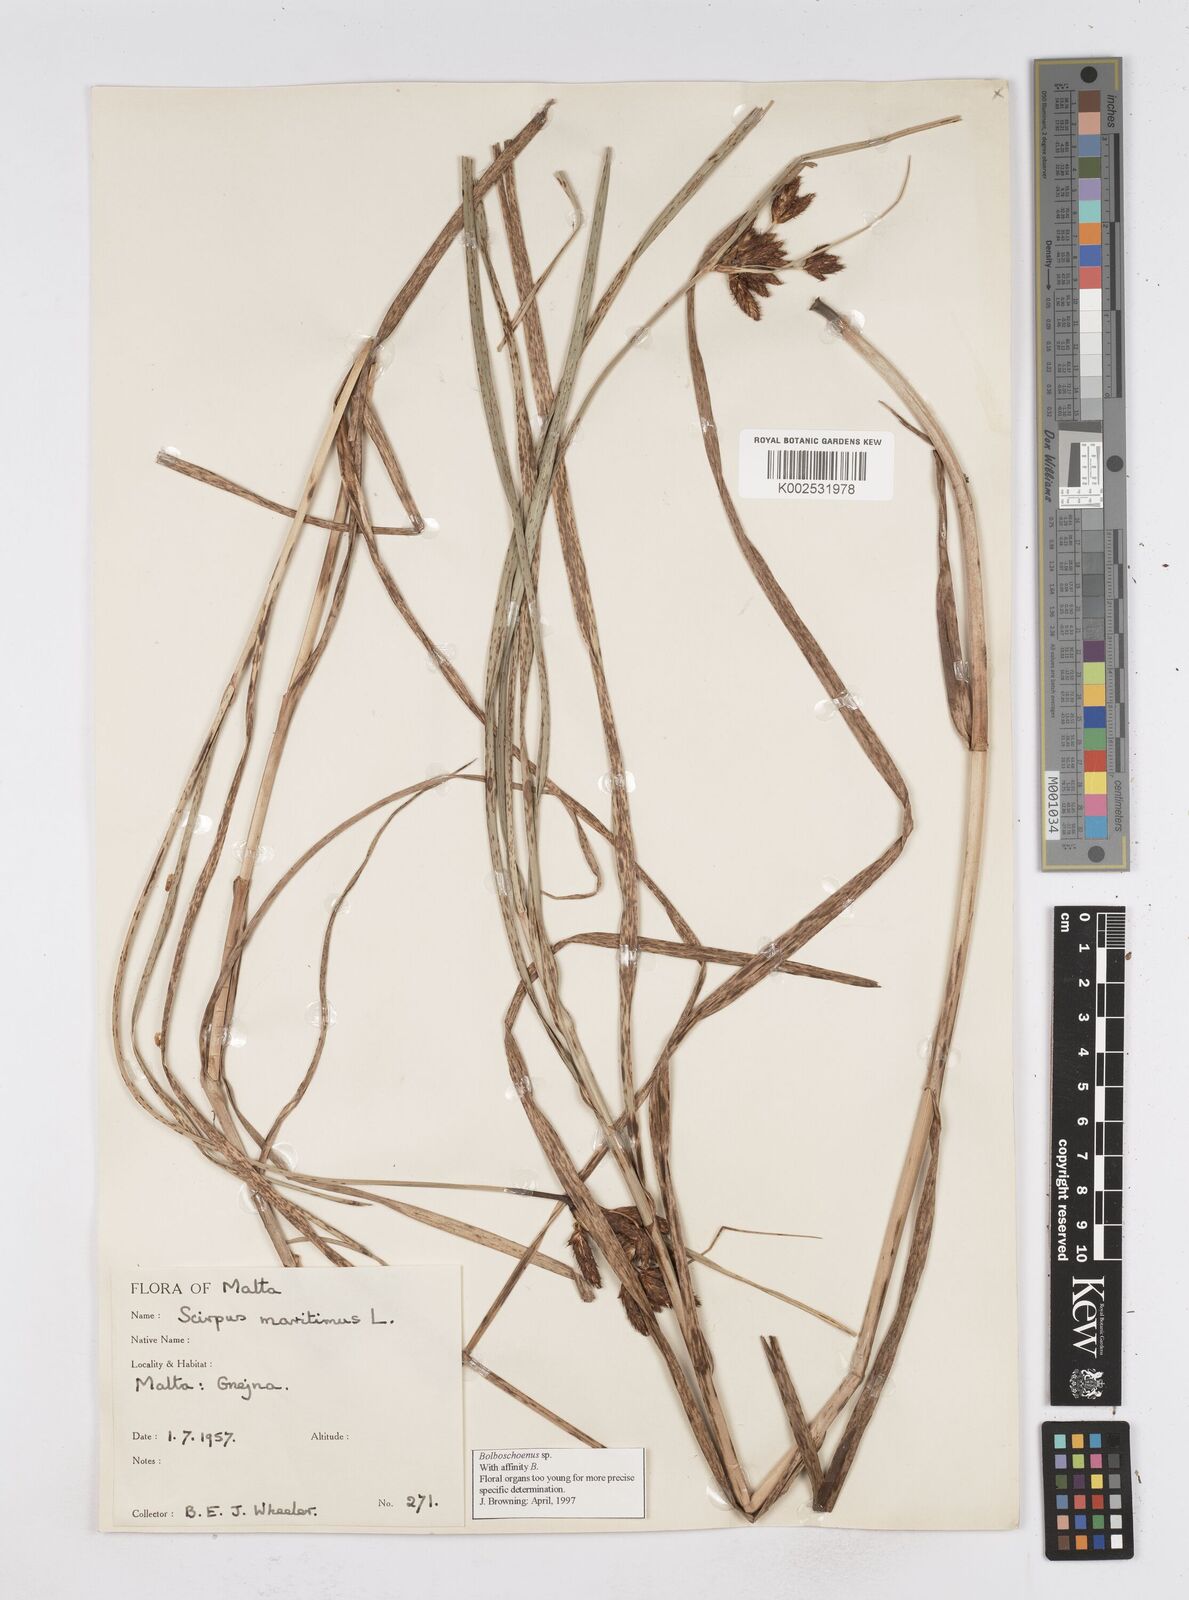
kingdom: Plantae
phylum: Tracheophyta
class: Liliopsida
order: Poales
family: Cyperaceae
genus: Bolboschoenus
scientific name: Bolboschoenus maritimus
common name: Sea club-rush
